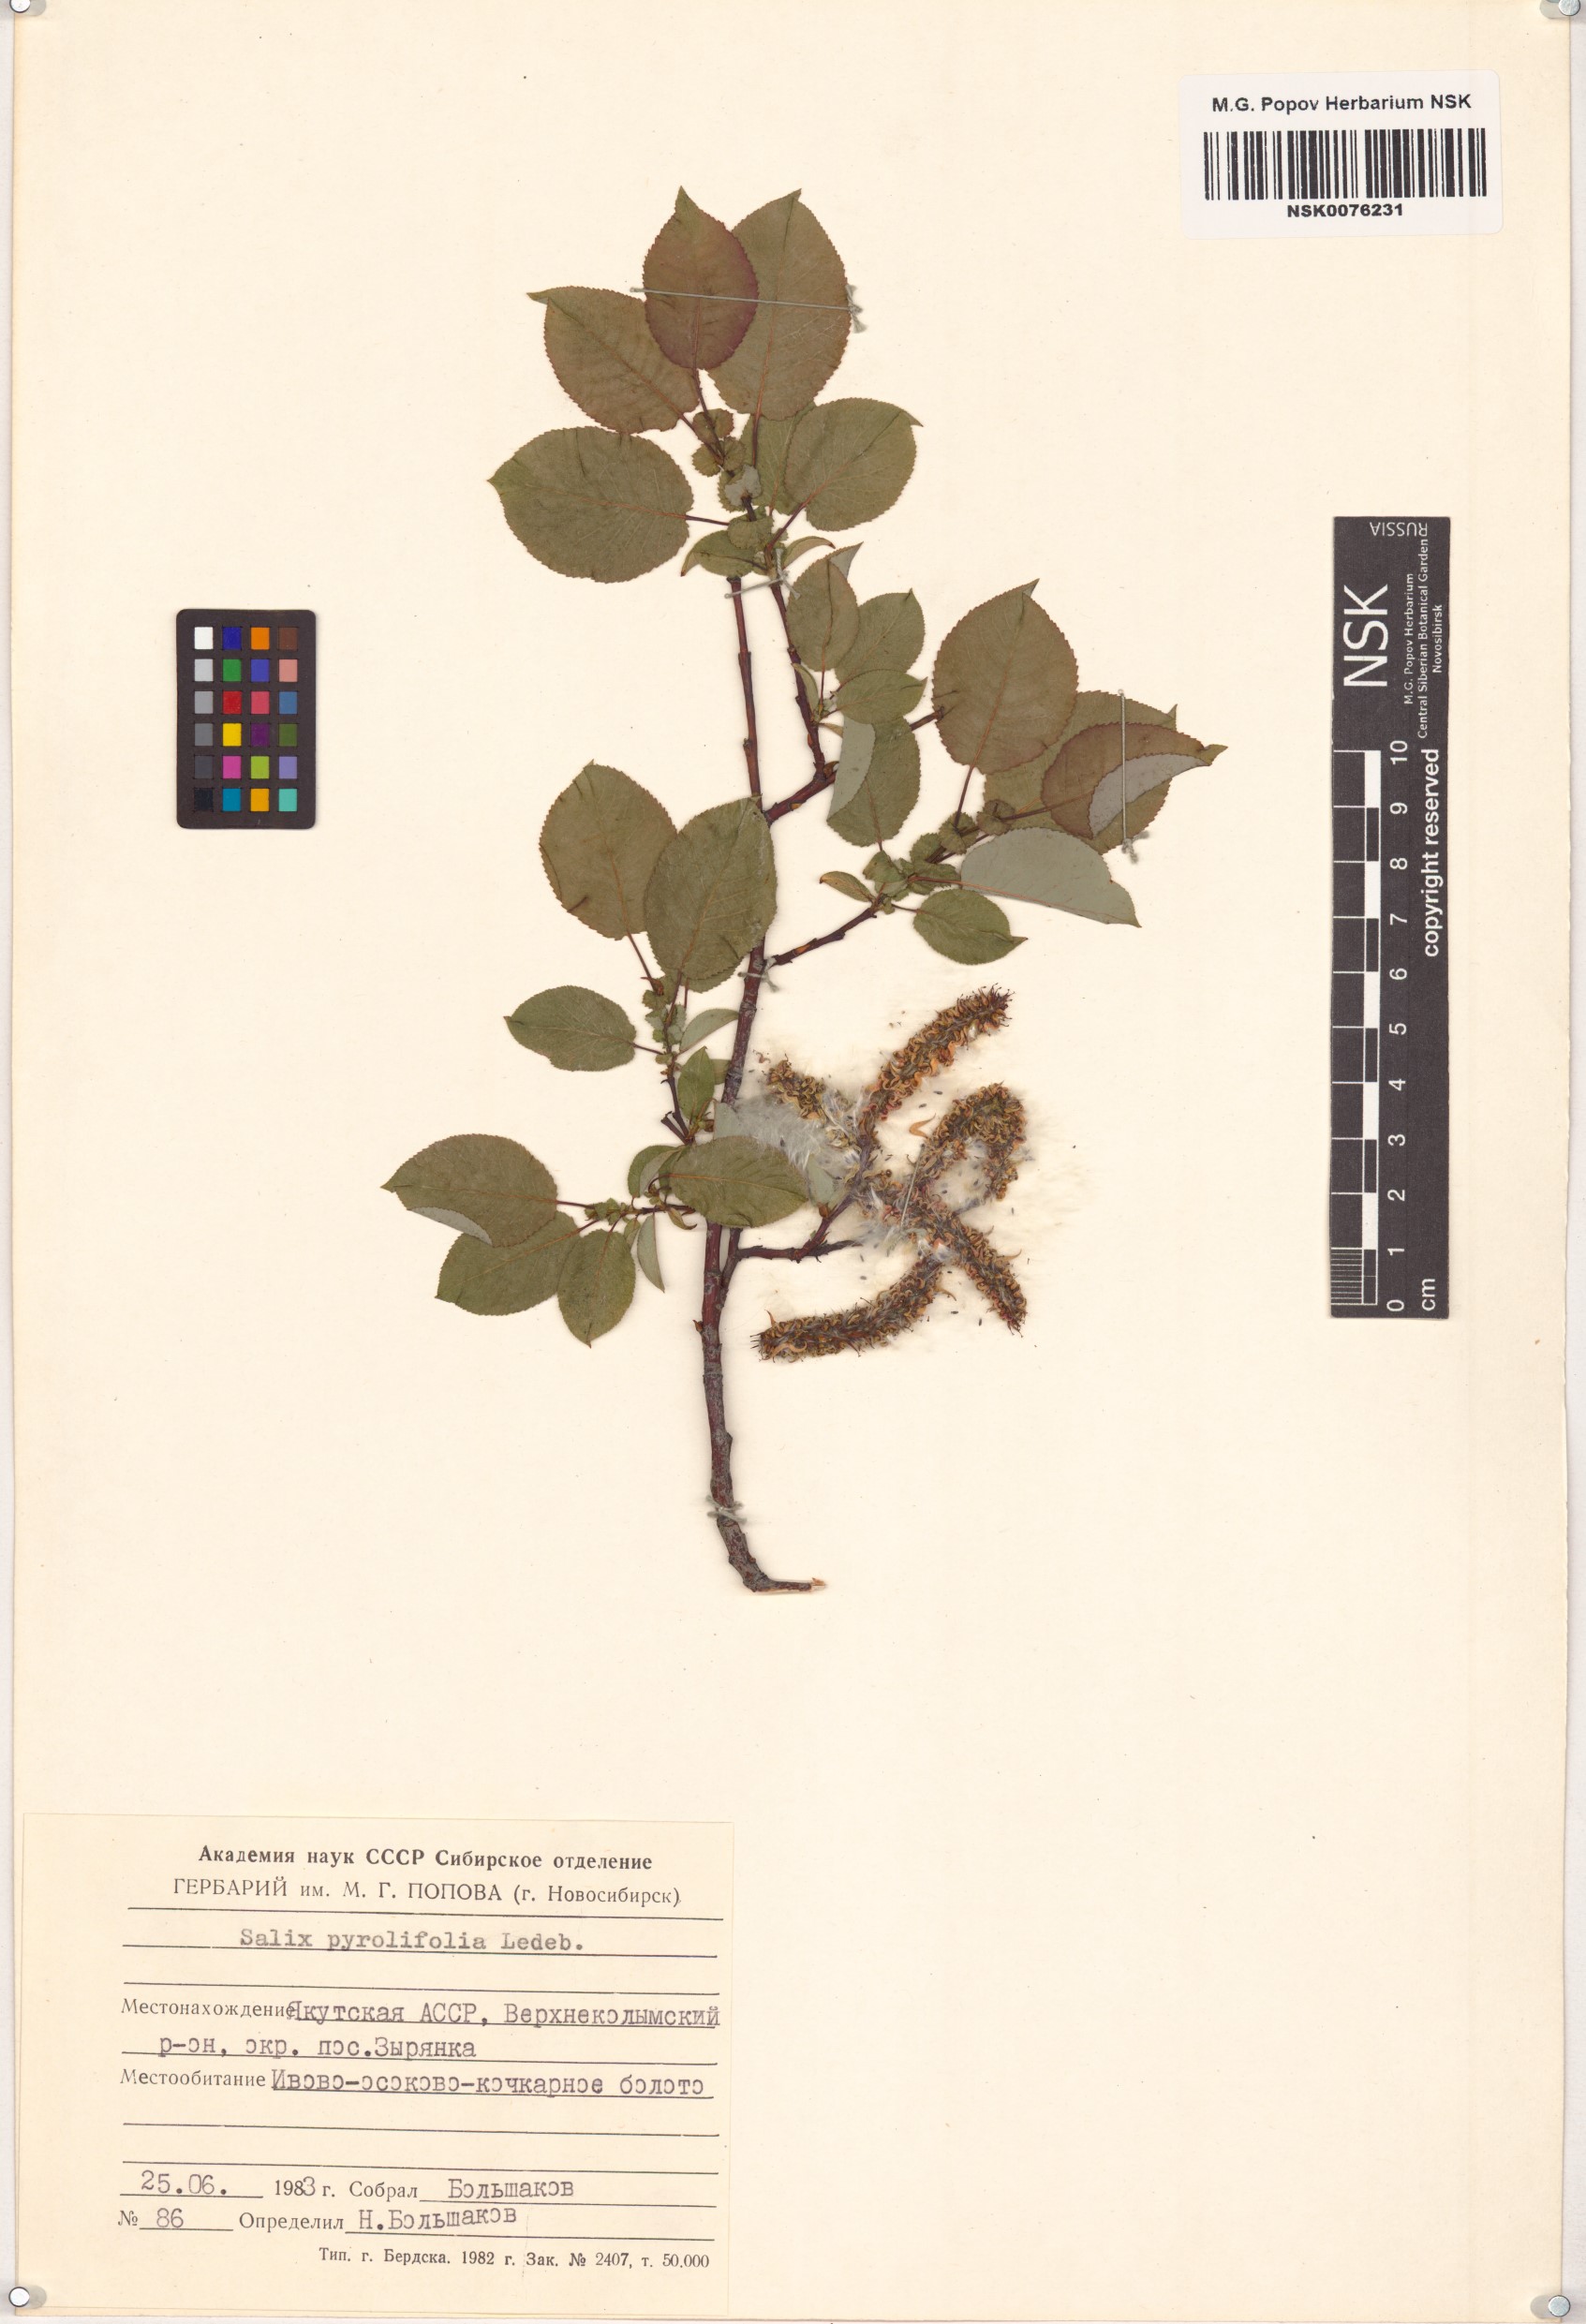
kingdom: Plantae
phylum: Tracheophyta
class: Magnoliopsida
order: Malpighiales
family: Salicaceae
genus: Salix
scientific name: Salix pyrolifolia
